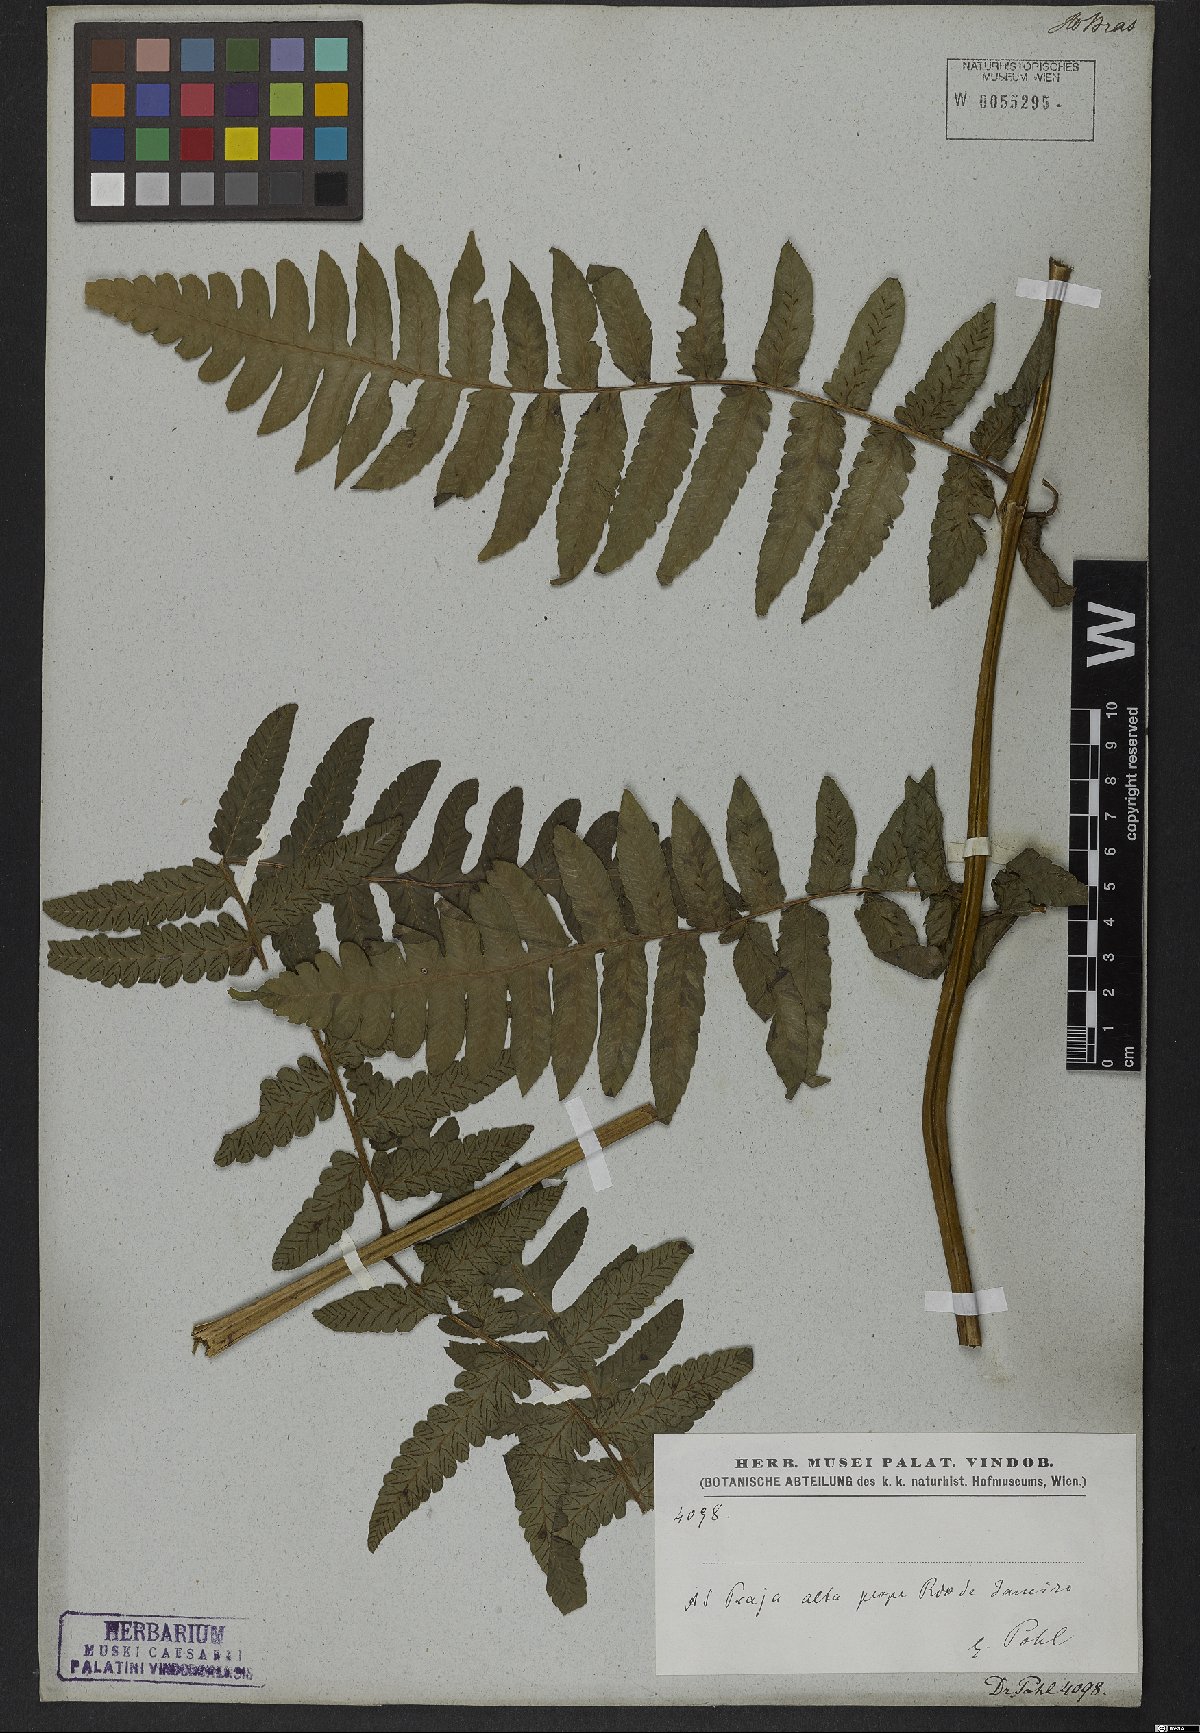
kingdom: Plantae
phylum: Tracheophyta
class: Polypodiopsida
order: Polypodiales
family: Athyriaceae
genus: Diplazium
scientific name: Diplazium
